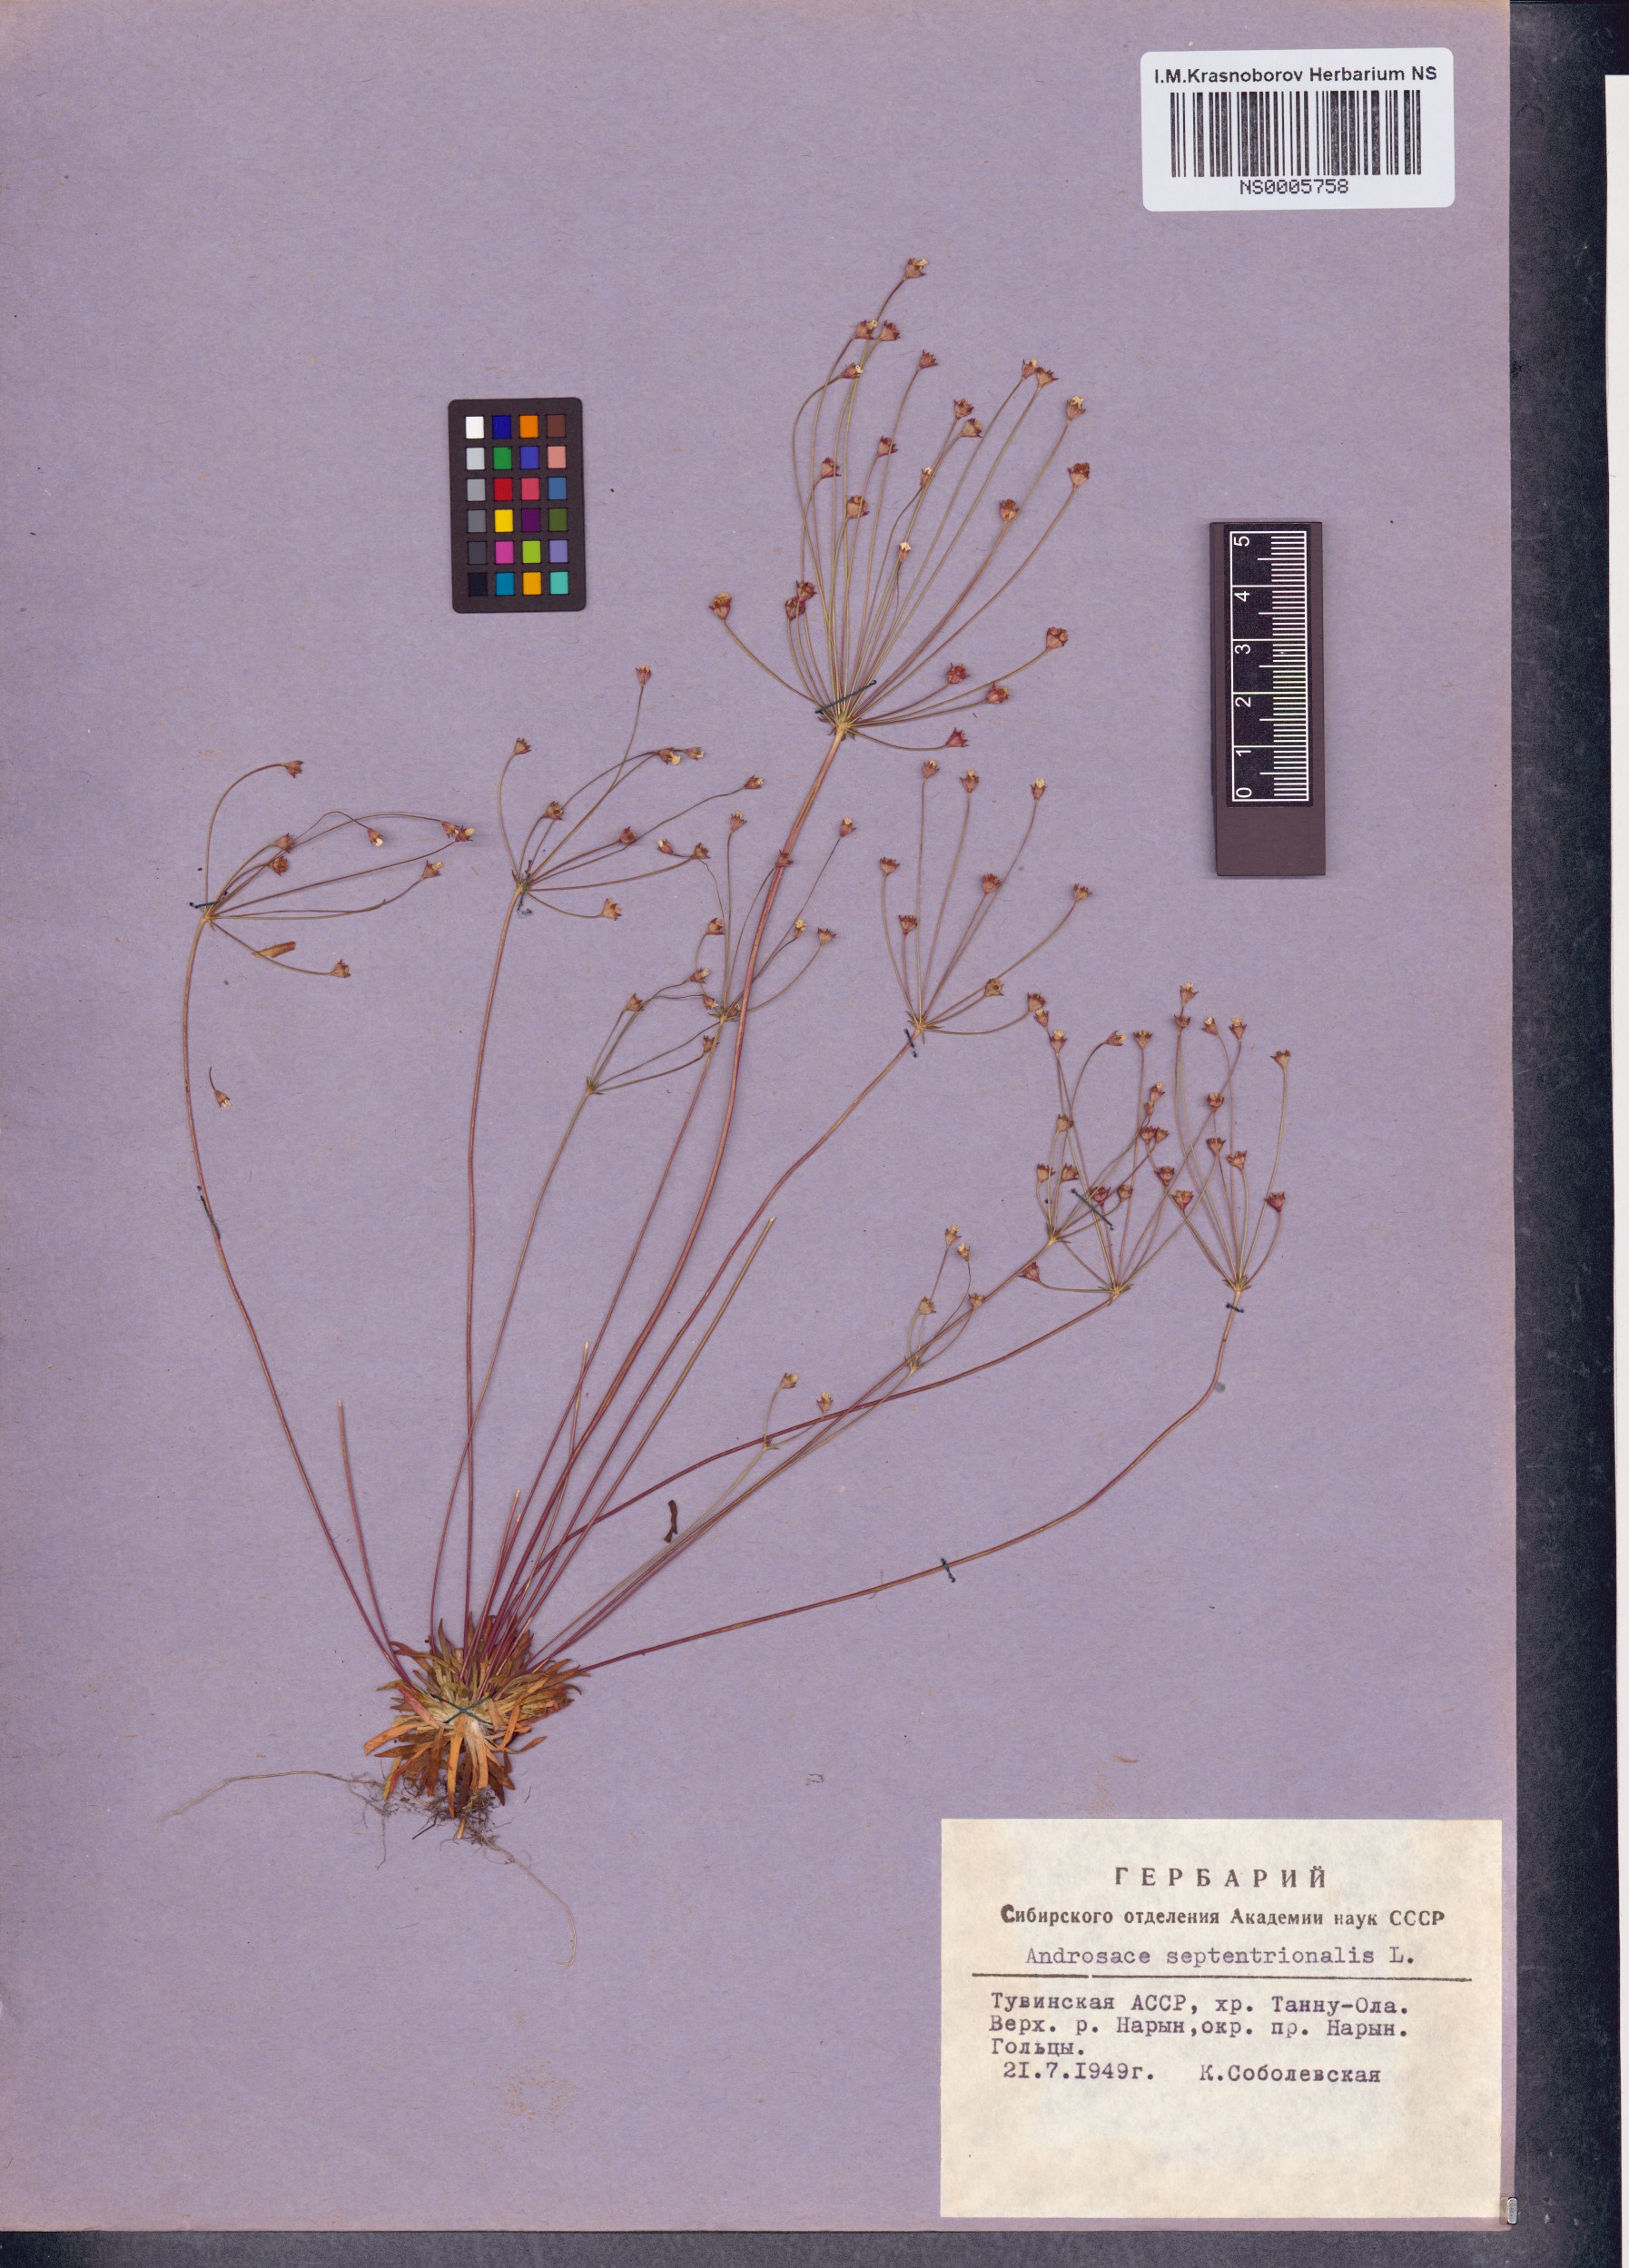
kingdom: Plantae
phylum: Tracheophyta
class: Magnoliopsida
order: Ericales
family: Primulaceae
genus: Androsace
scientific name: Androsace septentrionalis
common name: Hairy northern fairy-candelabra
